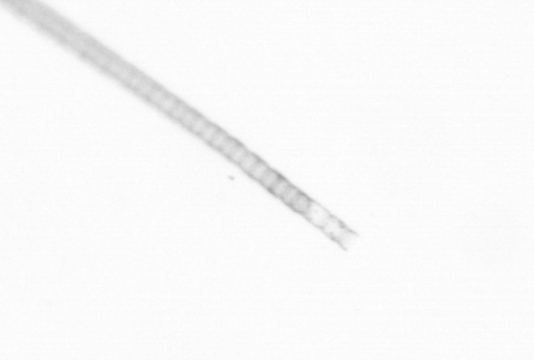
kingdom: Chromista
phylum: Ochrophyta
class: Bacillariophyceae
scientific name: Bacillariophyceae
